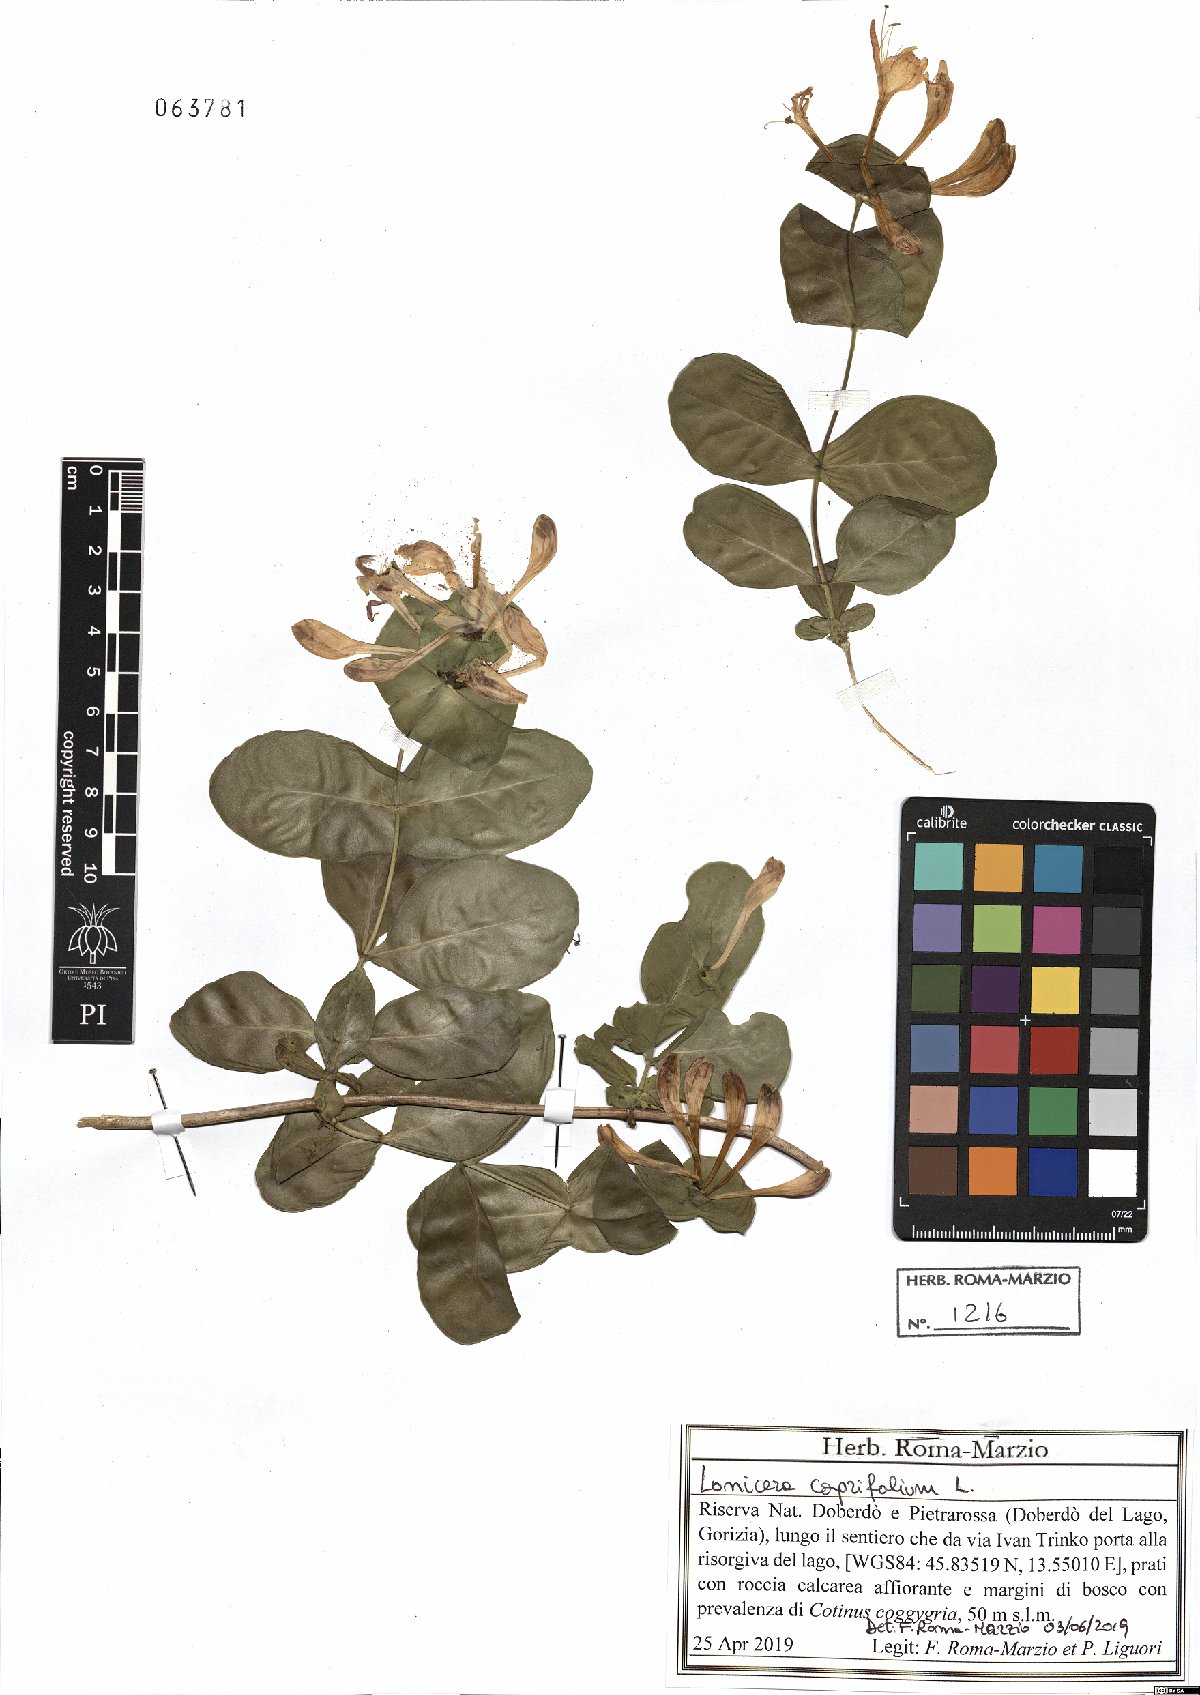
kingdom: Plantae
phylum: Tracheophyta
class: Magnoliopsida
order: Dipsacales
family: Caprifoliaceae
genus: Lonicera
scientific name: Lonicera caprifolium
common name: Perfoliate honeysuckle
